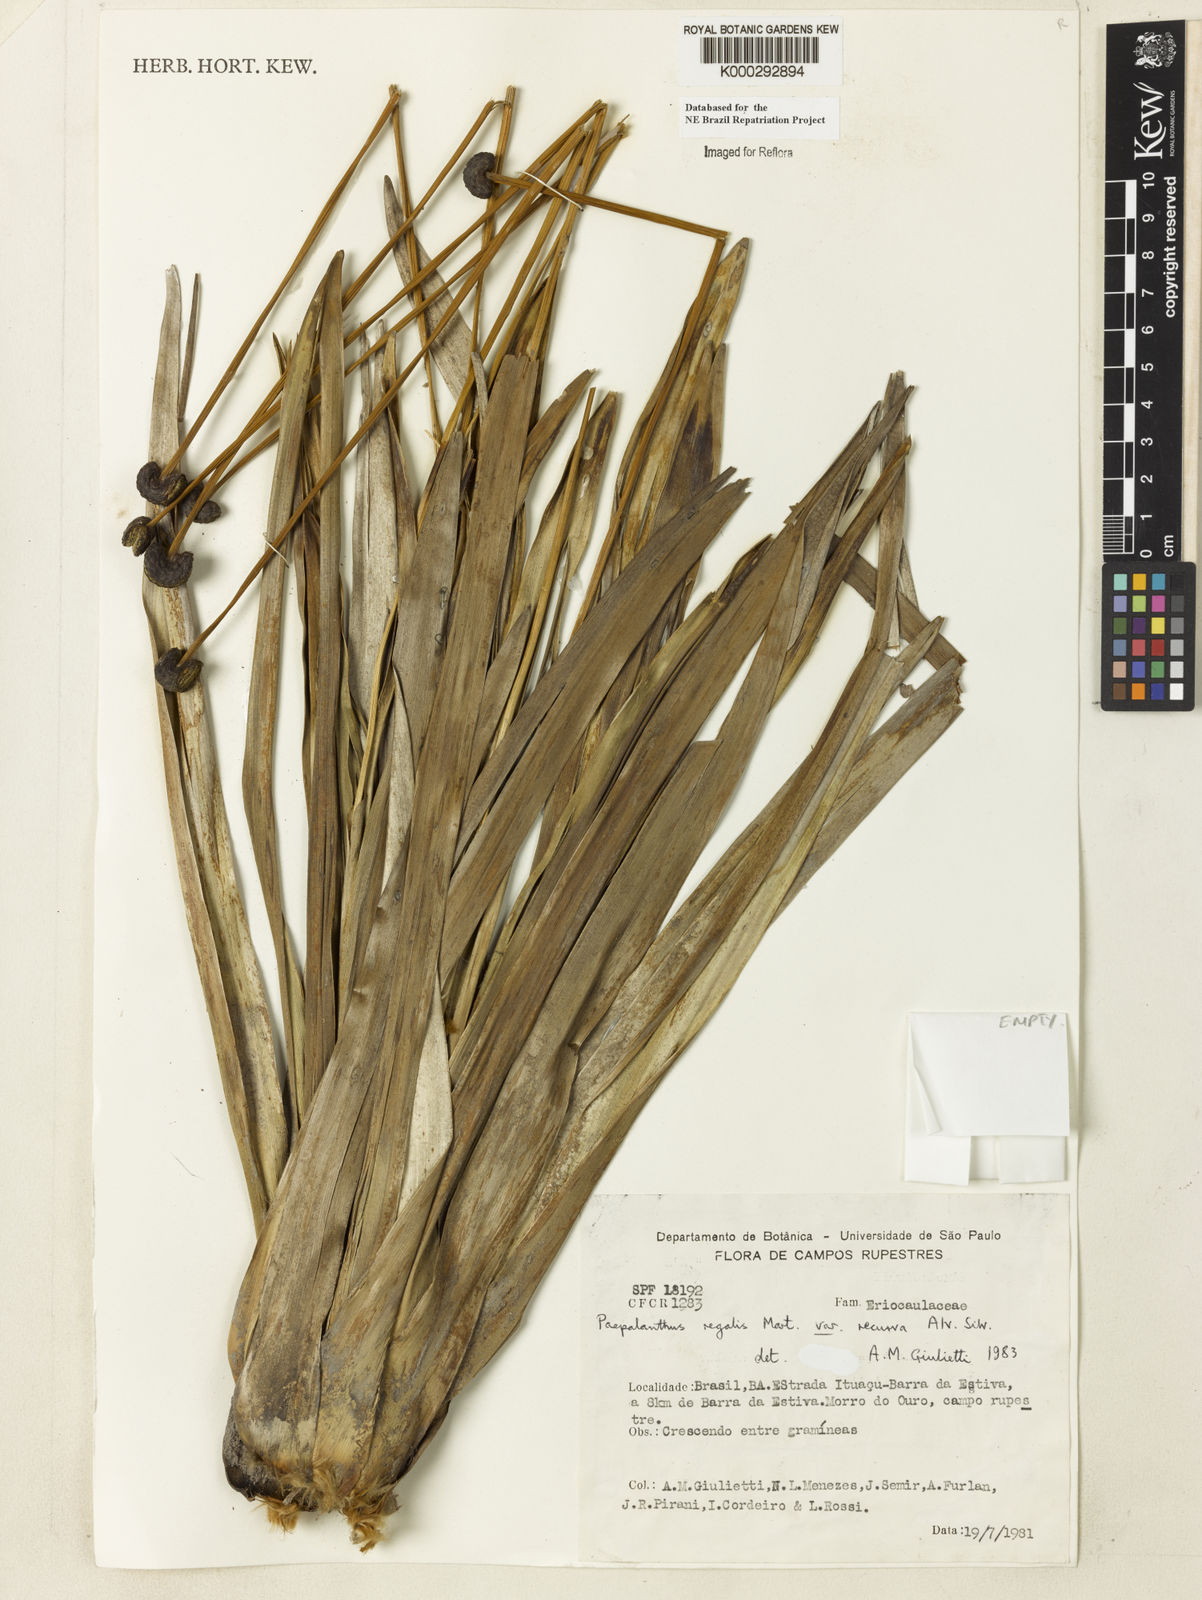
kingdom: Plantae
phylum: Tracheophyta
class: Liliopsida
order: Poales
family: Eriocaulaceae
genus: Paepalanthus
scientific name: Paepalanthus
